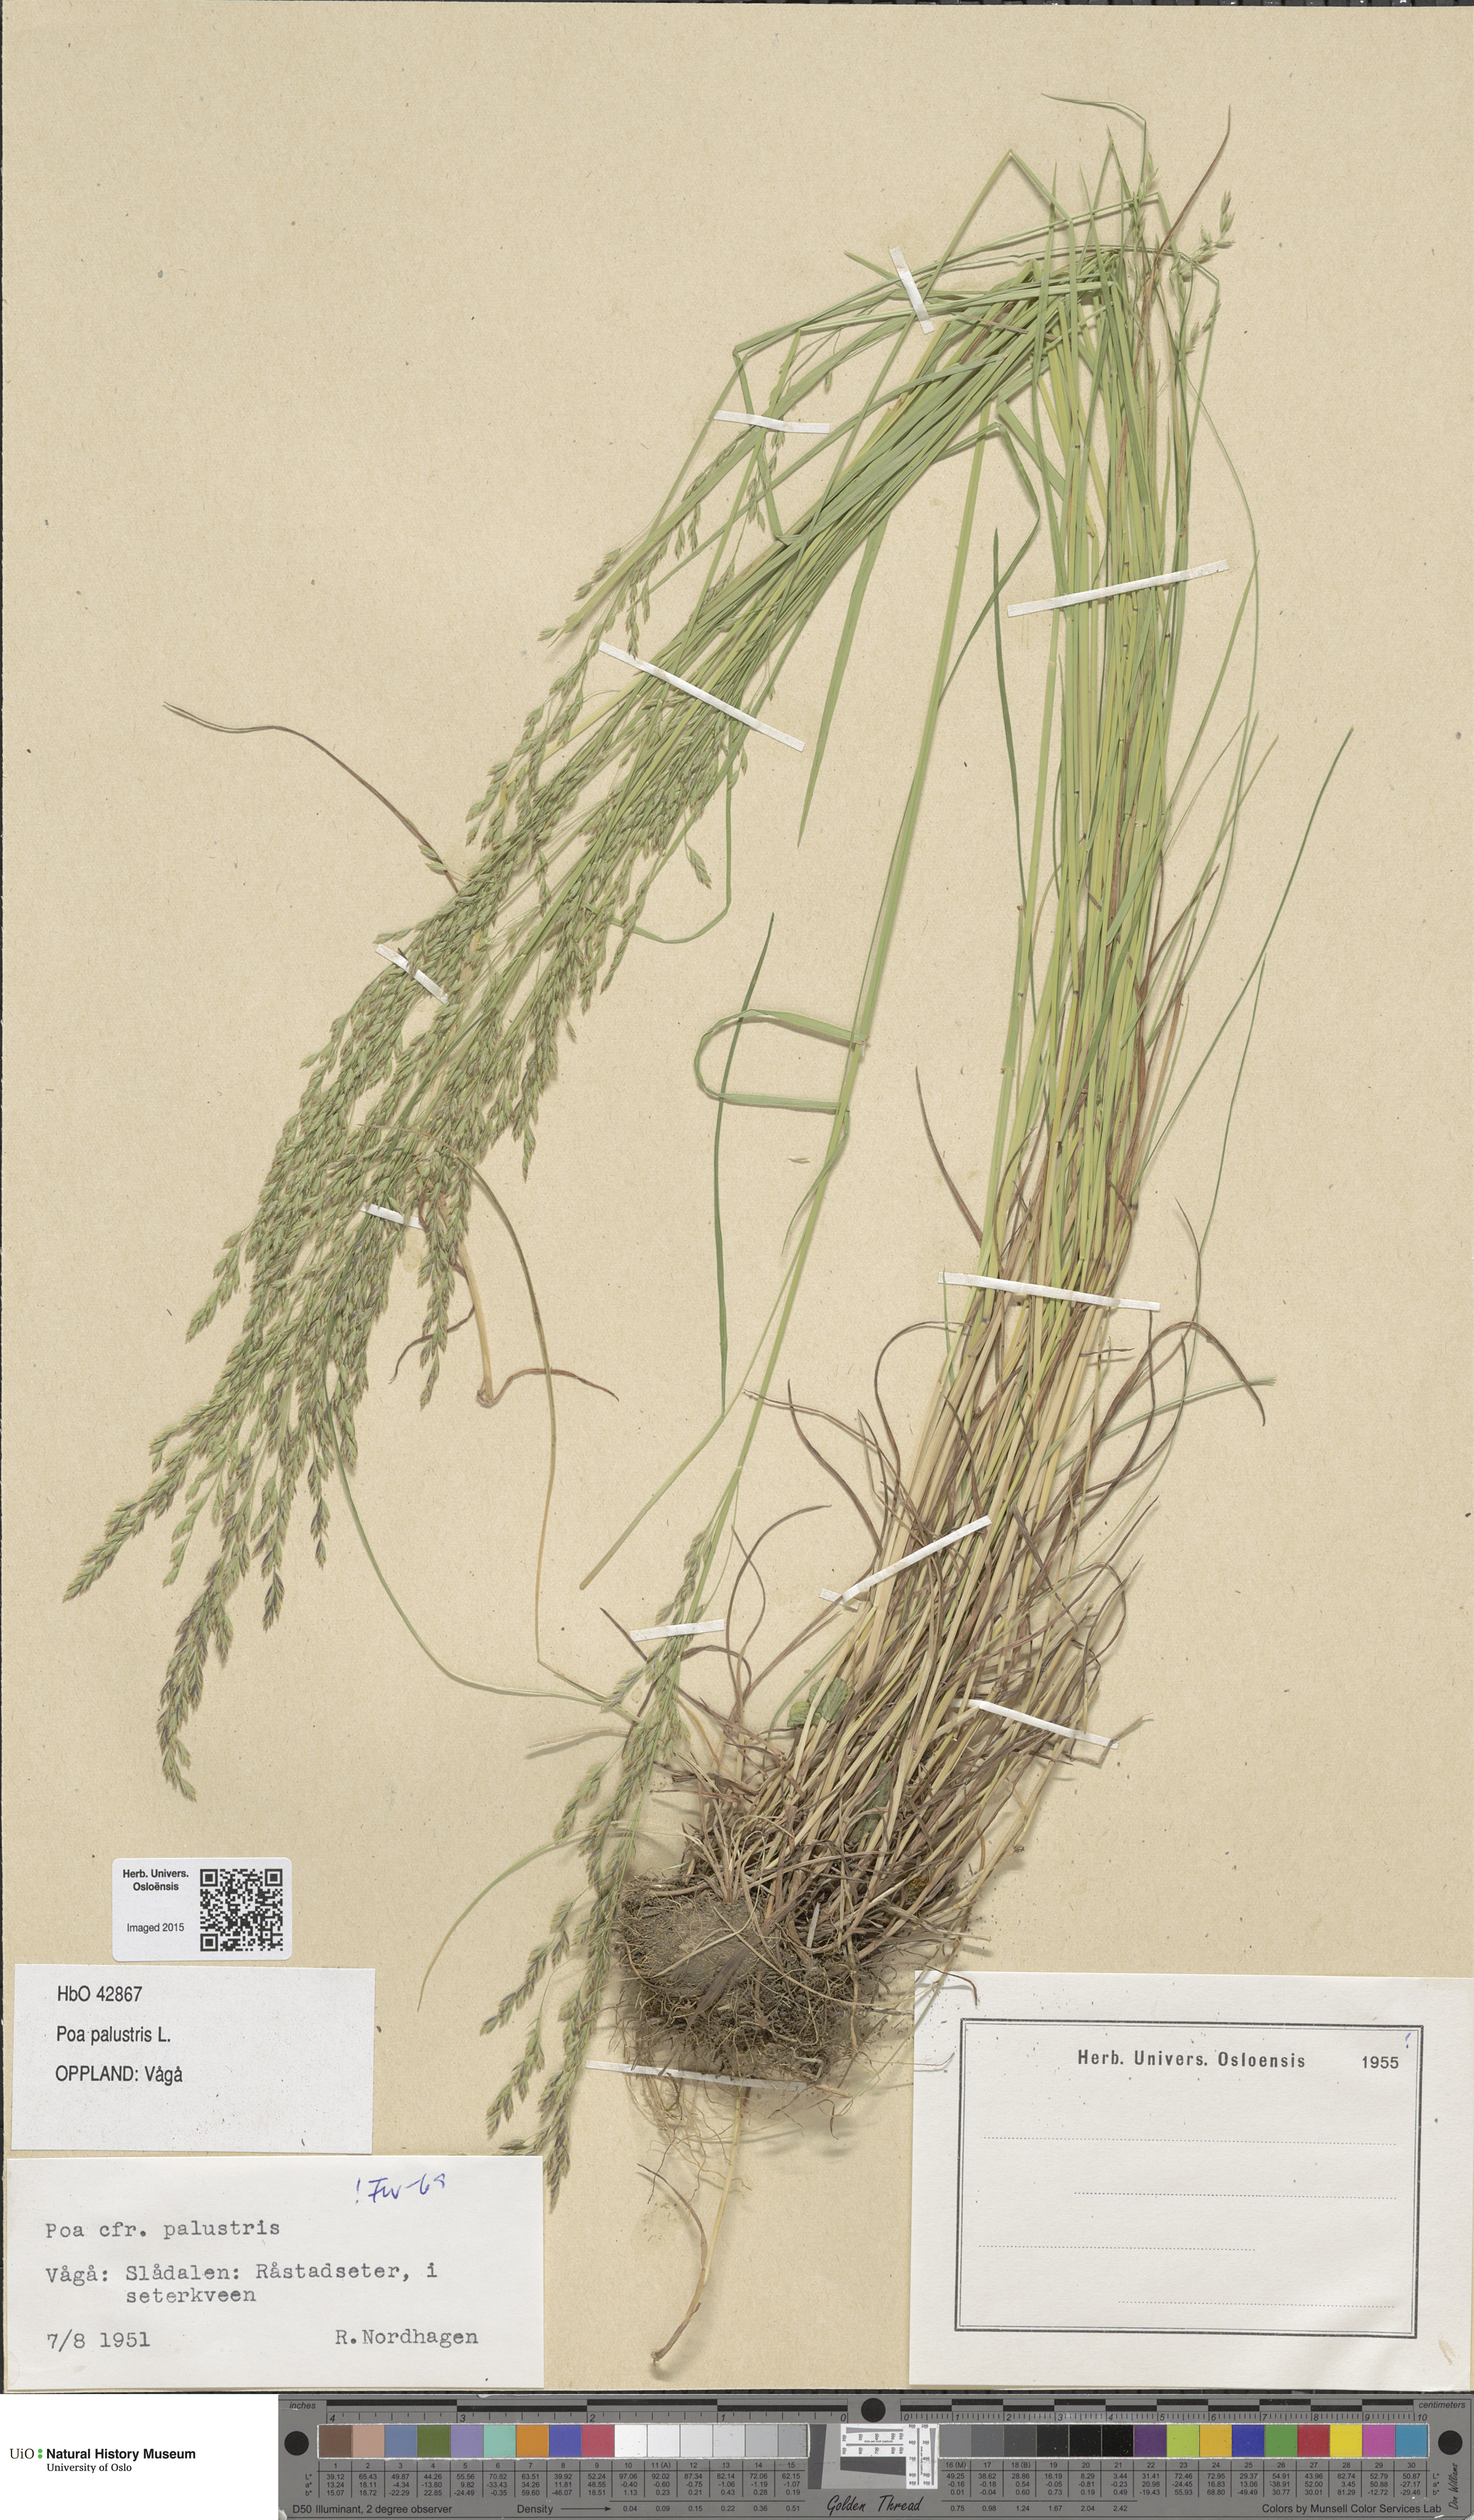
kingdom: Plantae
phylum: Tracheophyta
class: Liliopsida
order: Poales
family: Poaceae
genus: Poa
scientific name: Poa palustris
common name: Swamp meadow-grass
